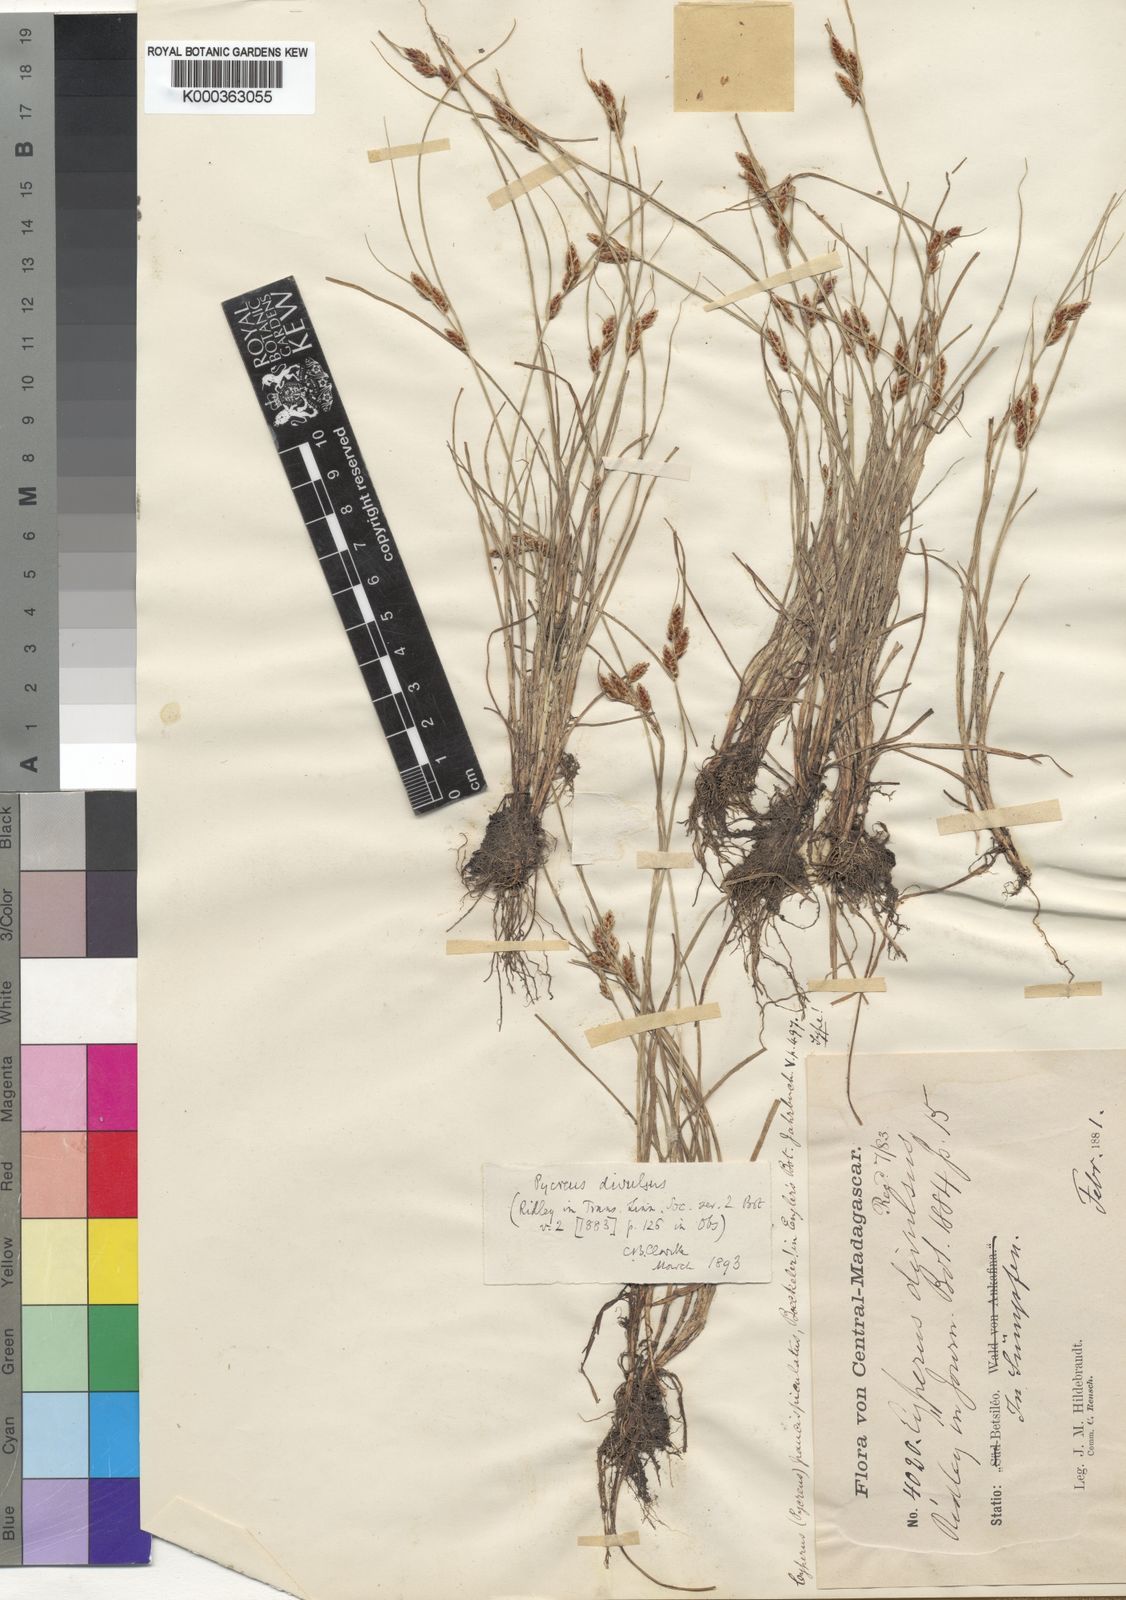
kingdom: Plantae
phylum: Tracheophyta
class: Liliopsida
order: Poales
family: Cyperaceae
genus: Cyperus
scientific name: Cyperus divulsus
